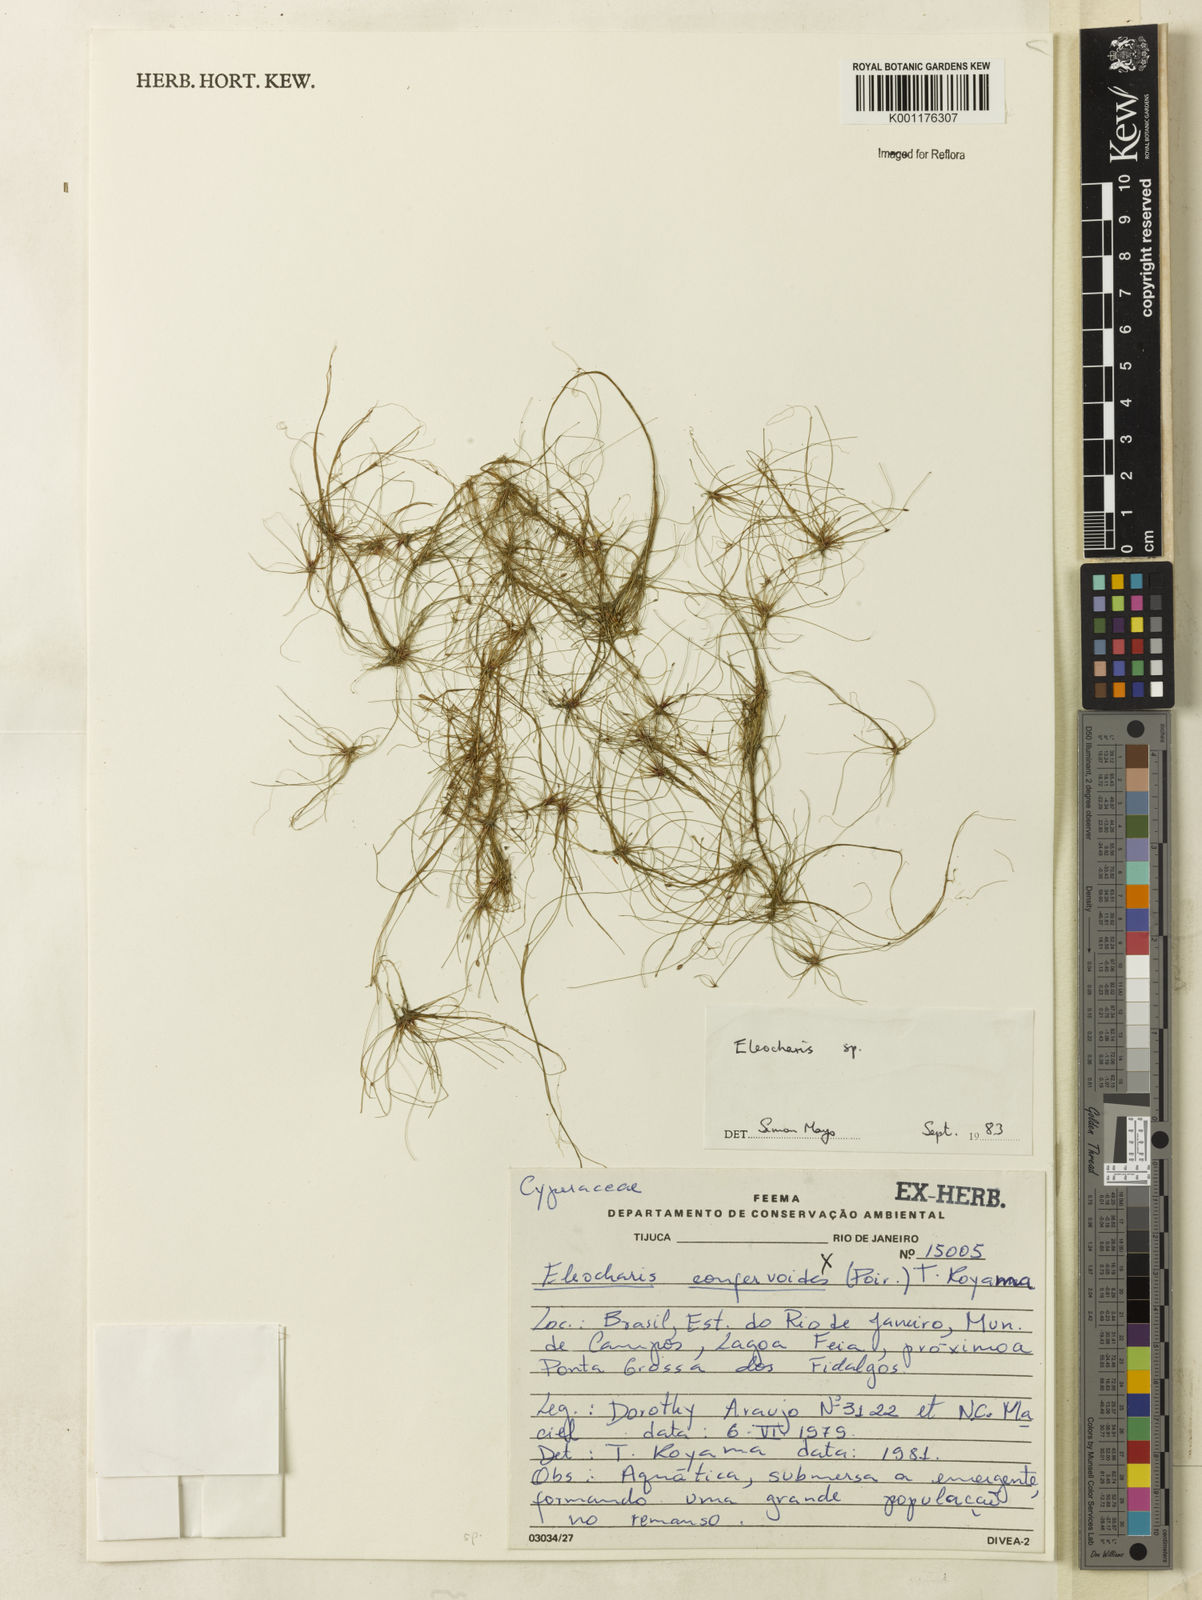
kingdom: Plantae
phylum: Tracheophyta
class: Liliopsida
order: Poales
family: Cyperaceae
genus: Eleocharis
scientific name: Eleocharis
